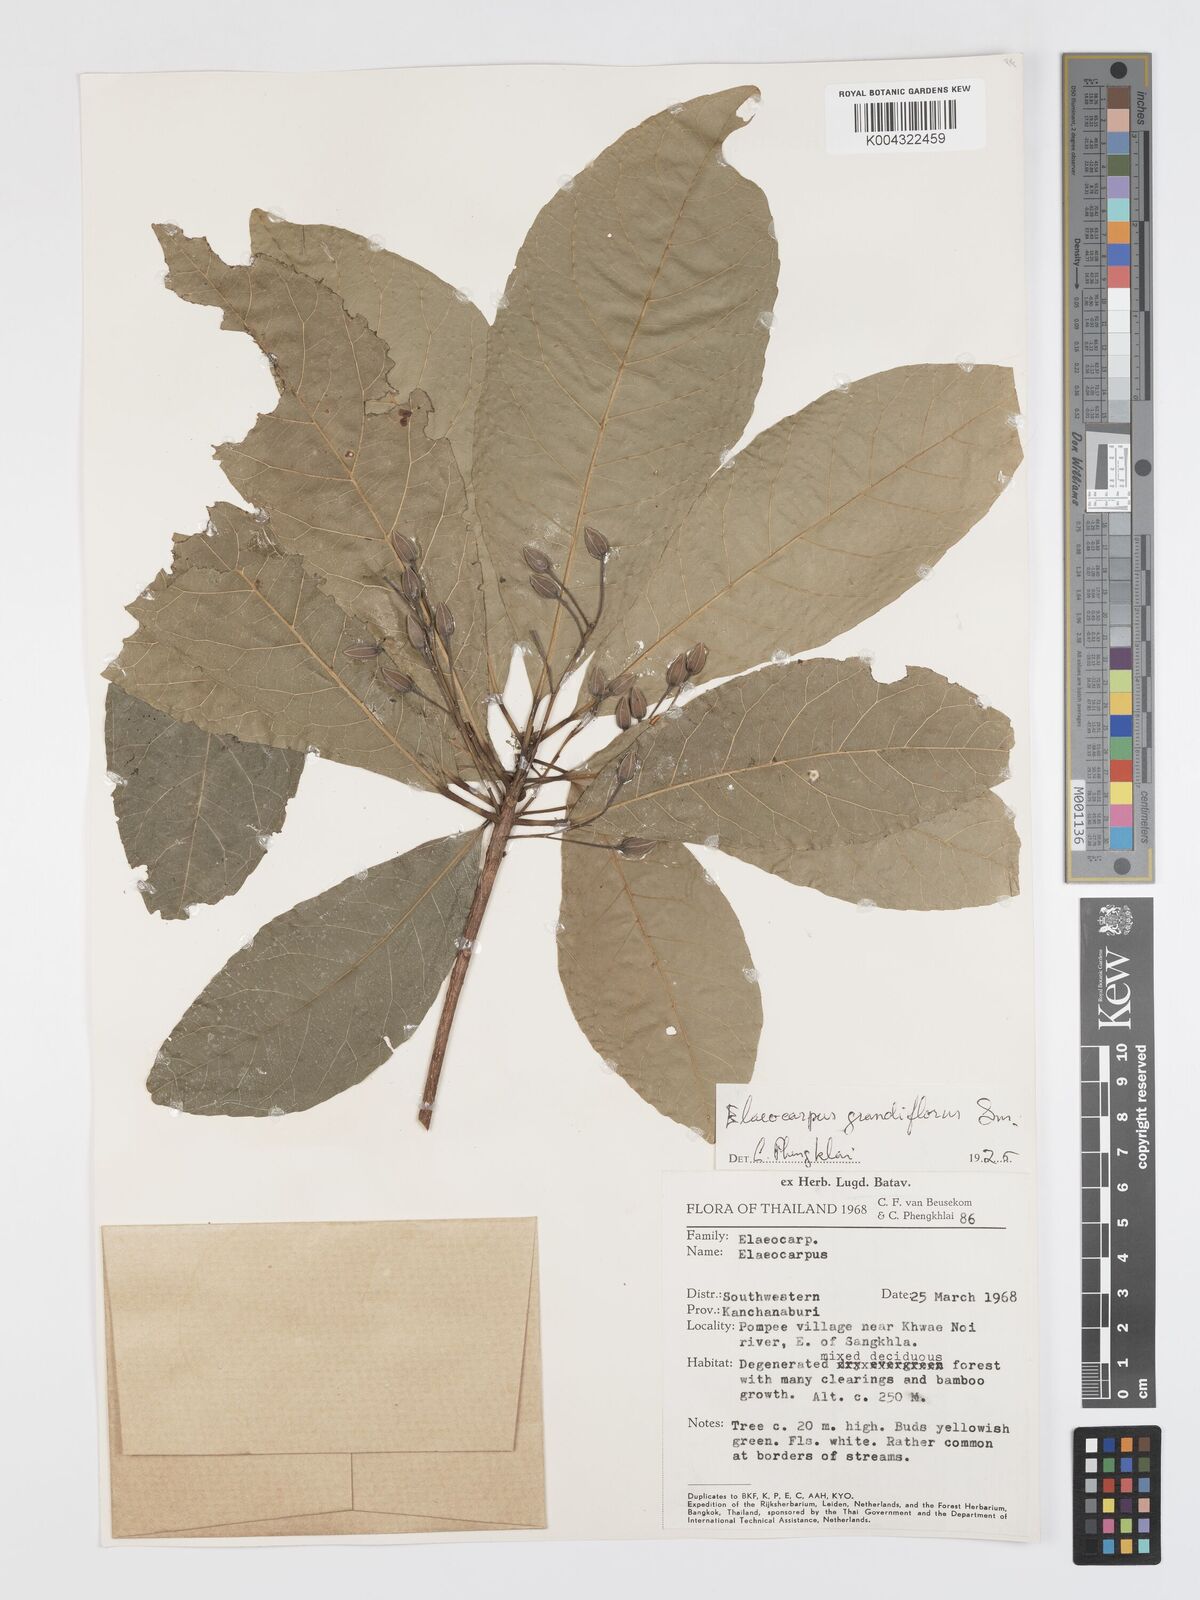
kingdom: Plantae
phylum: Tracheophyta
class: Magnoliopsida
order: Oxalidales
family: Elaeocarpaceae
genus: Elaeocarpus
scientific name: Elaeocarpus grandiflorus
